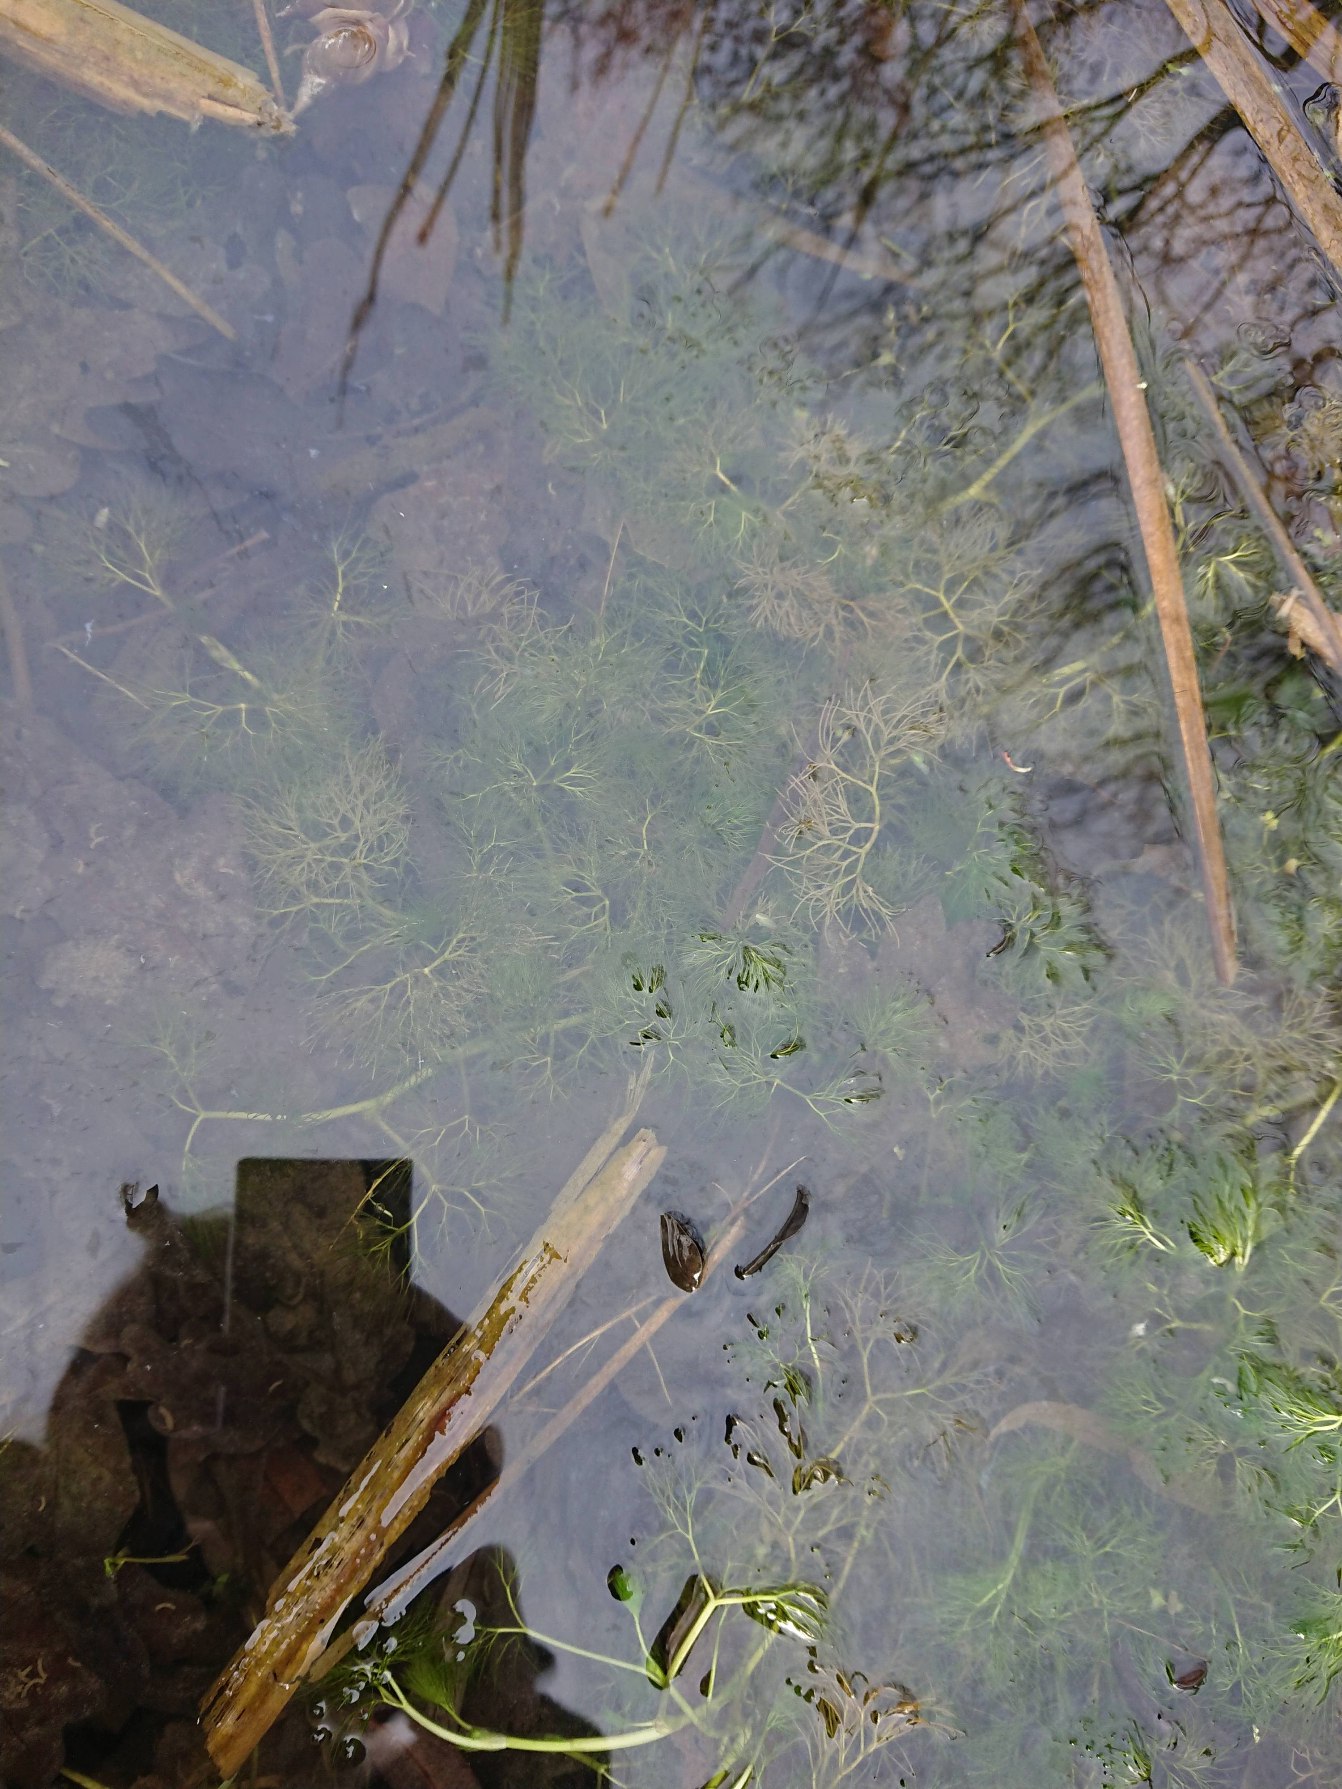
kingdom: Plantae
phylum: Tracheophyta
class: Magnoliopsida
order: Ranunculales
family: Ranunculaceae
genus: Ranunculus
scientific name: Ranunculus
